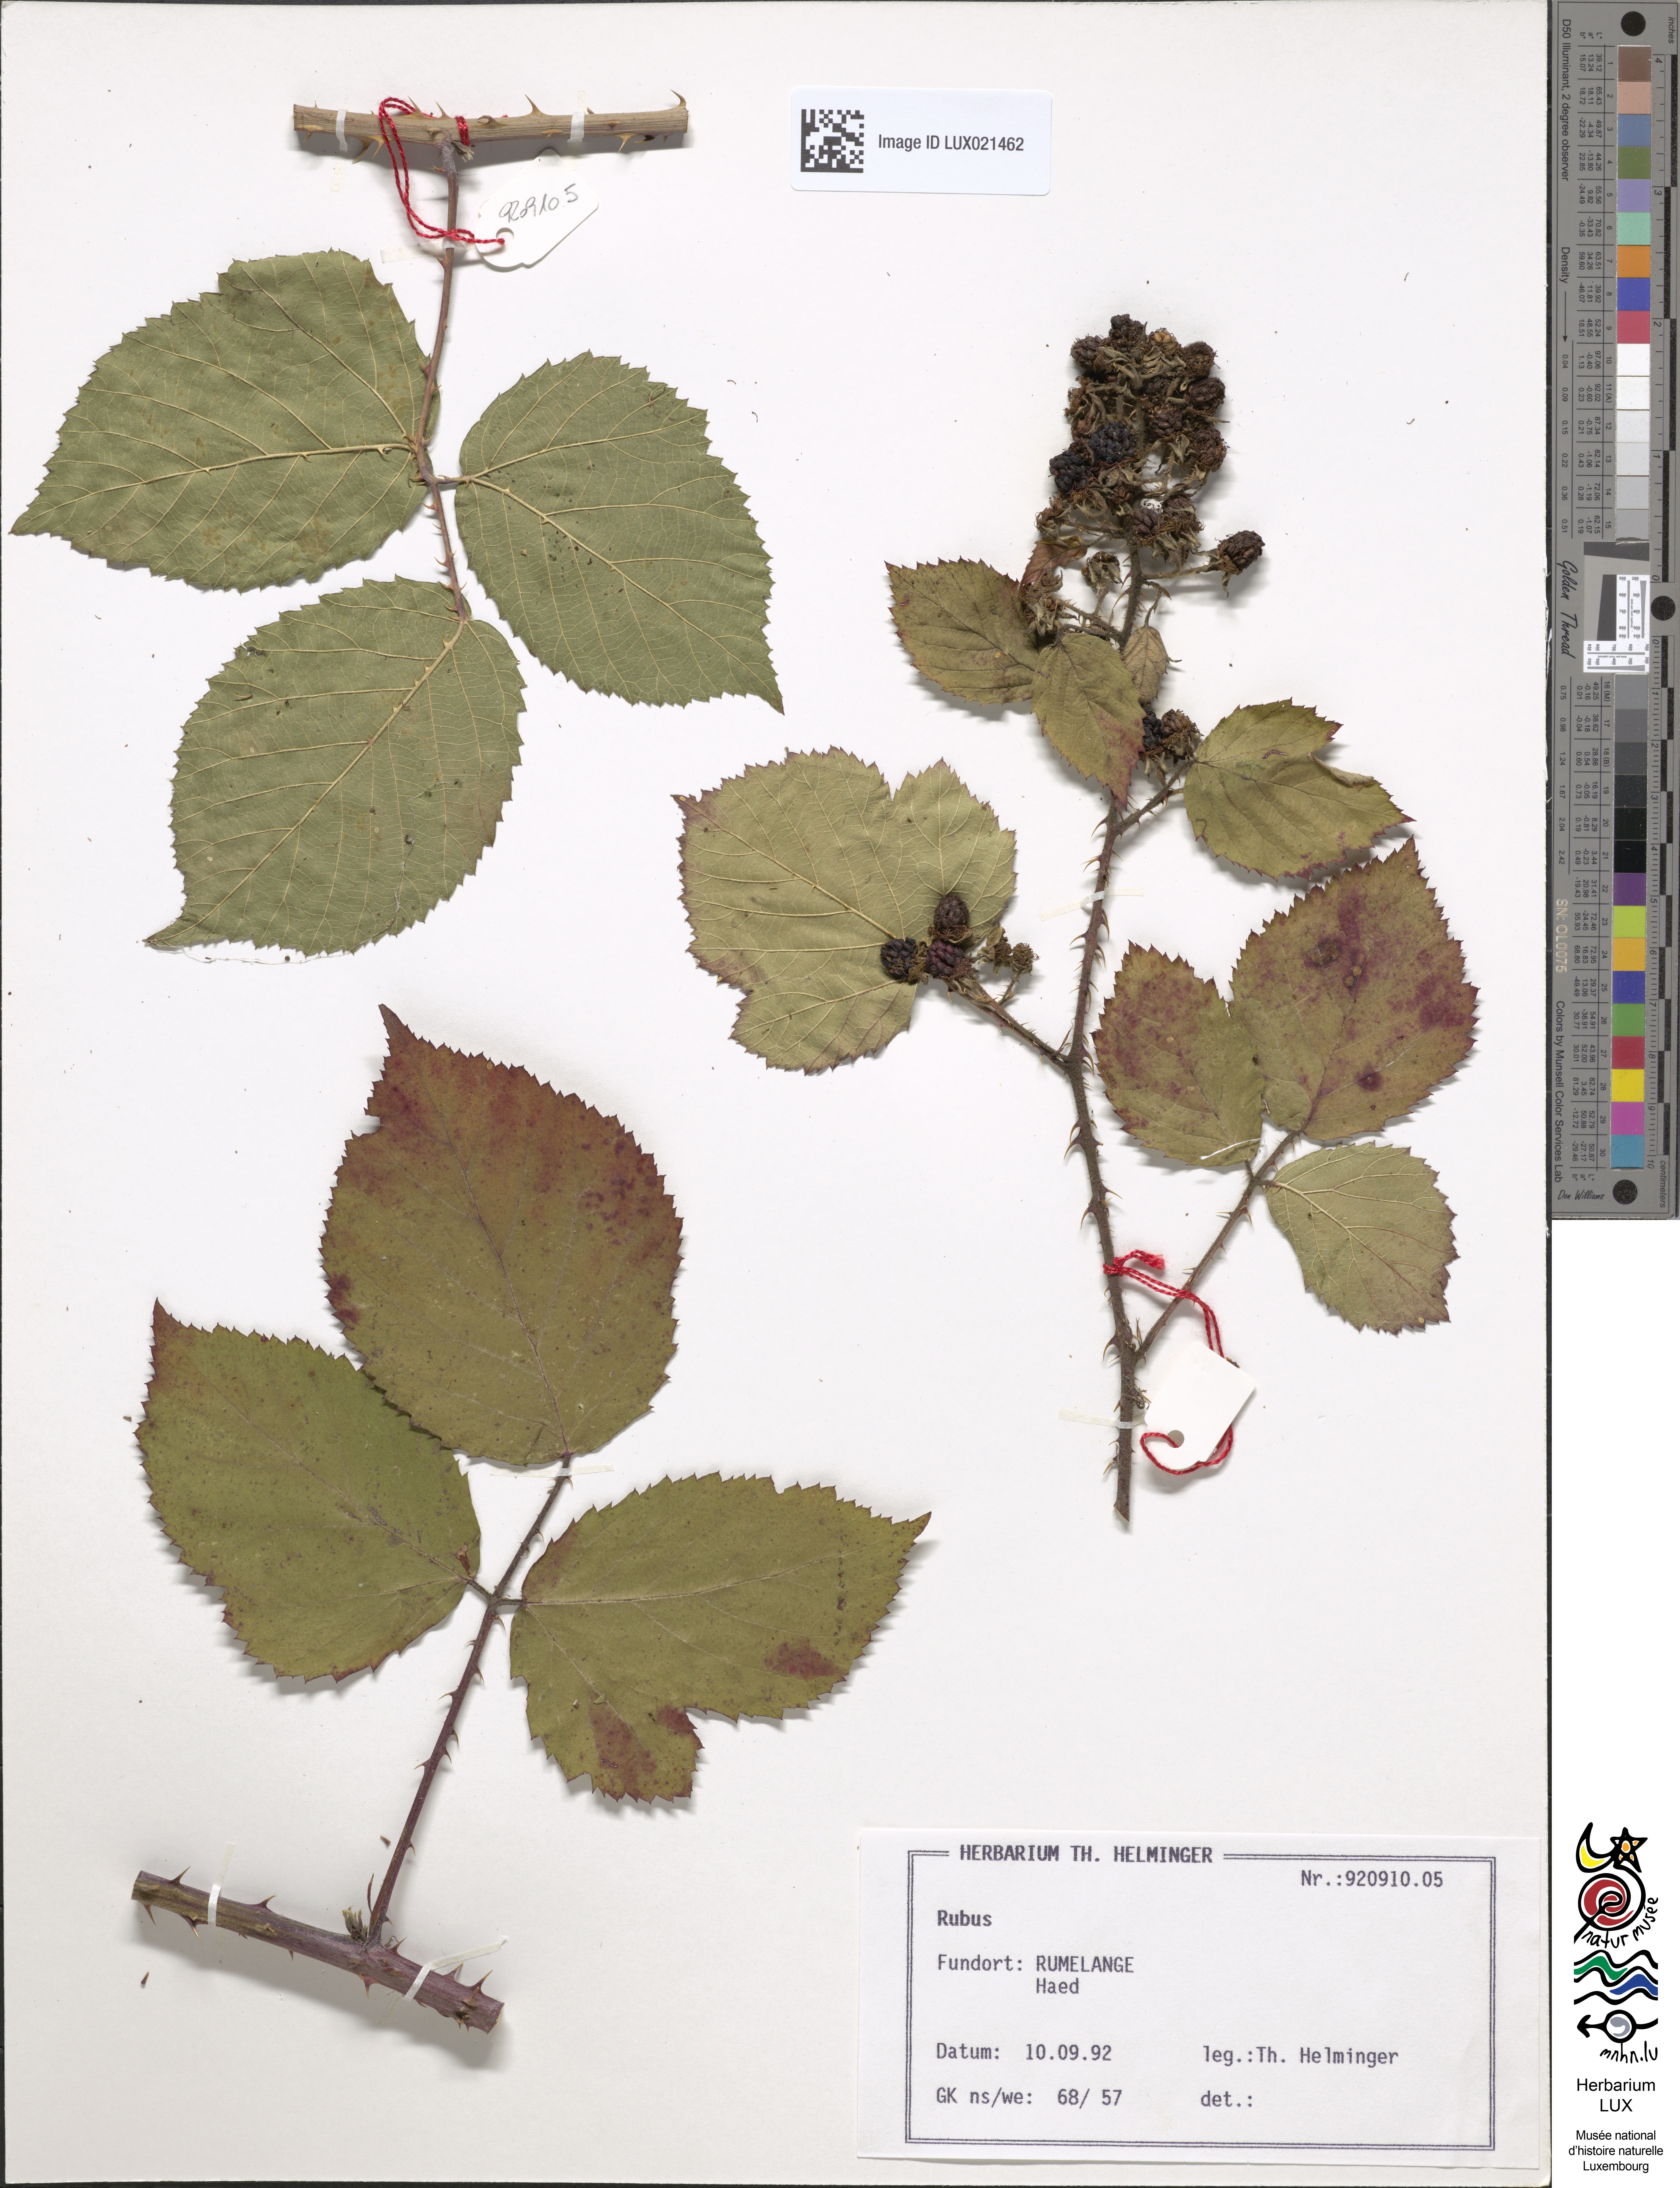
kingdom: Plantae
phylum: Tracheophyta
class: Magnoliopsida
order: Rosales
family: Rosaceae
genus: Rubus
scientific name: Rubus
